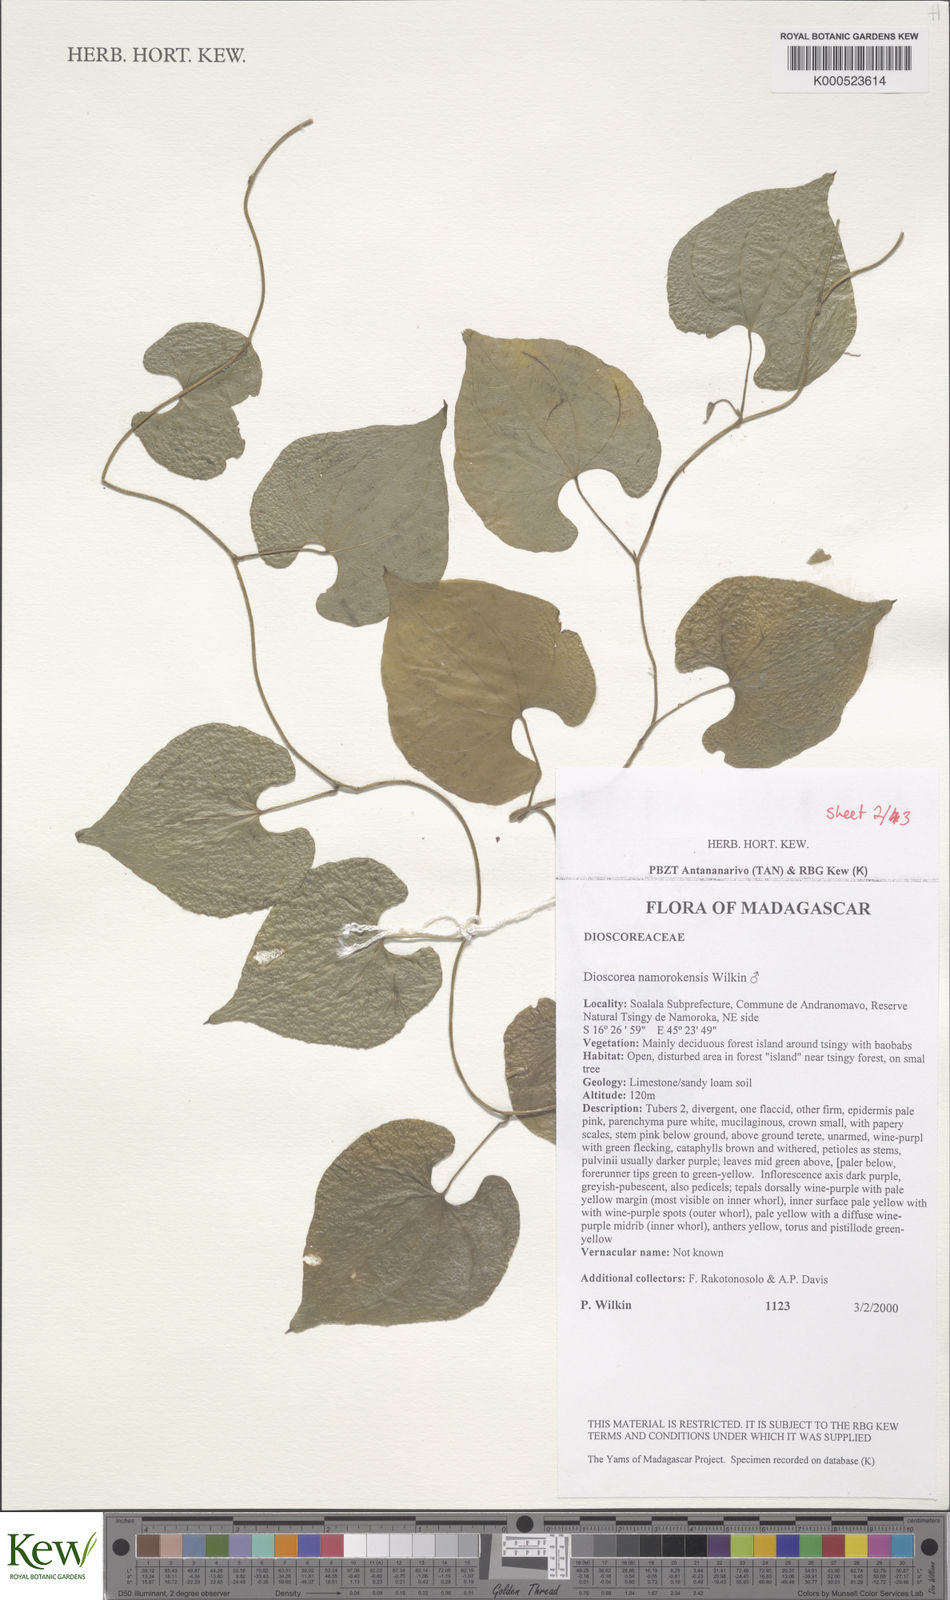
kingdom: Plantae
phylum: Tracheophyta
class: Liliopsida
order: Dioscoreales
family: Dioscoreaceae
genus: Dioscorea
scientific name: Dioscorea namorokensis
